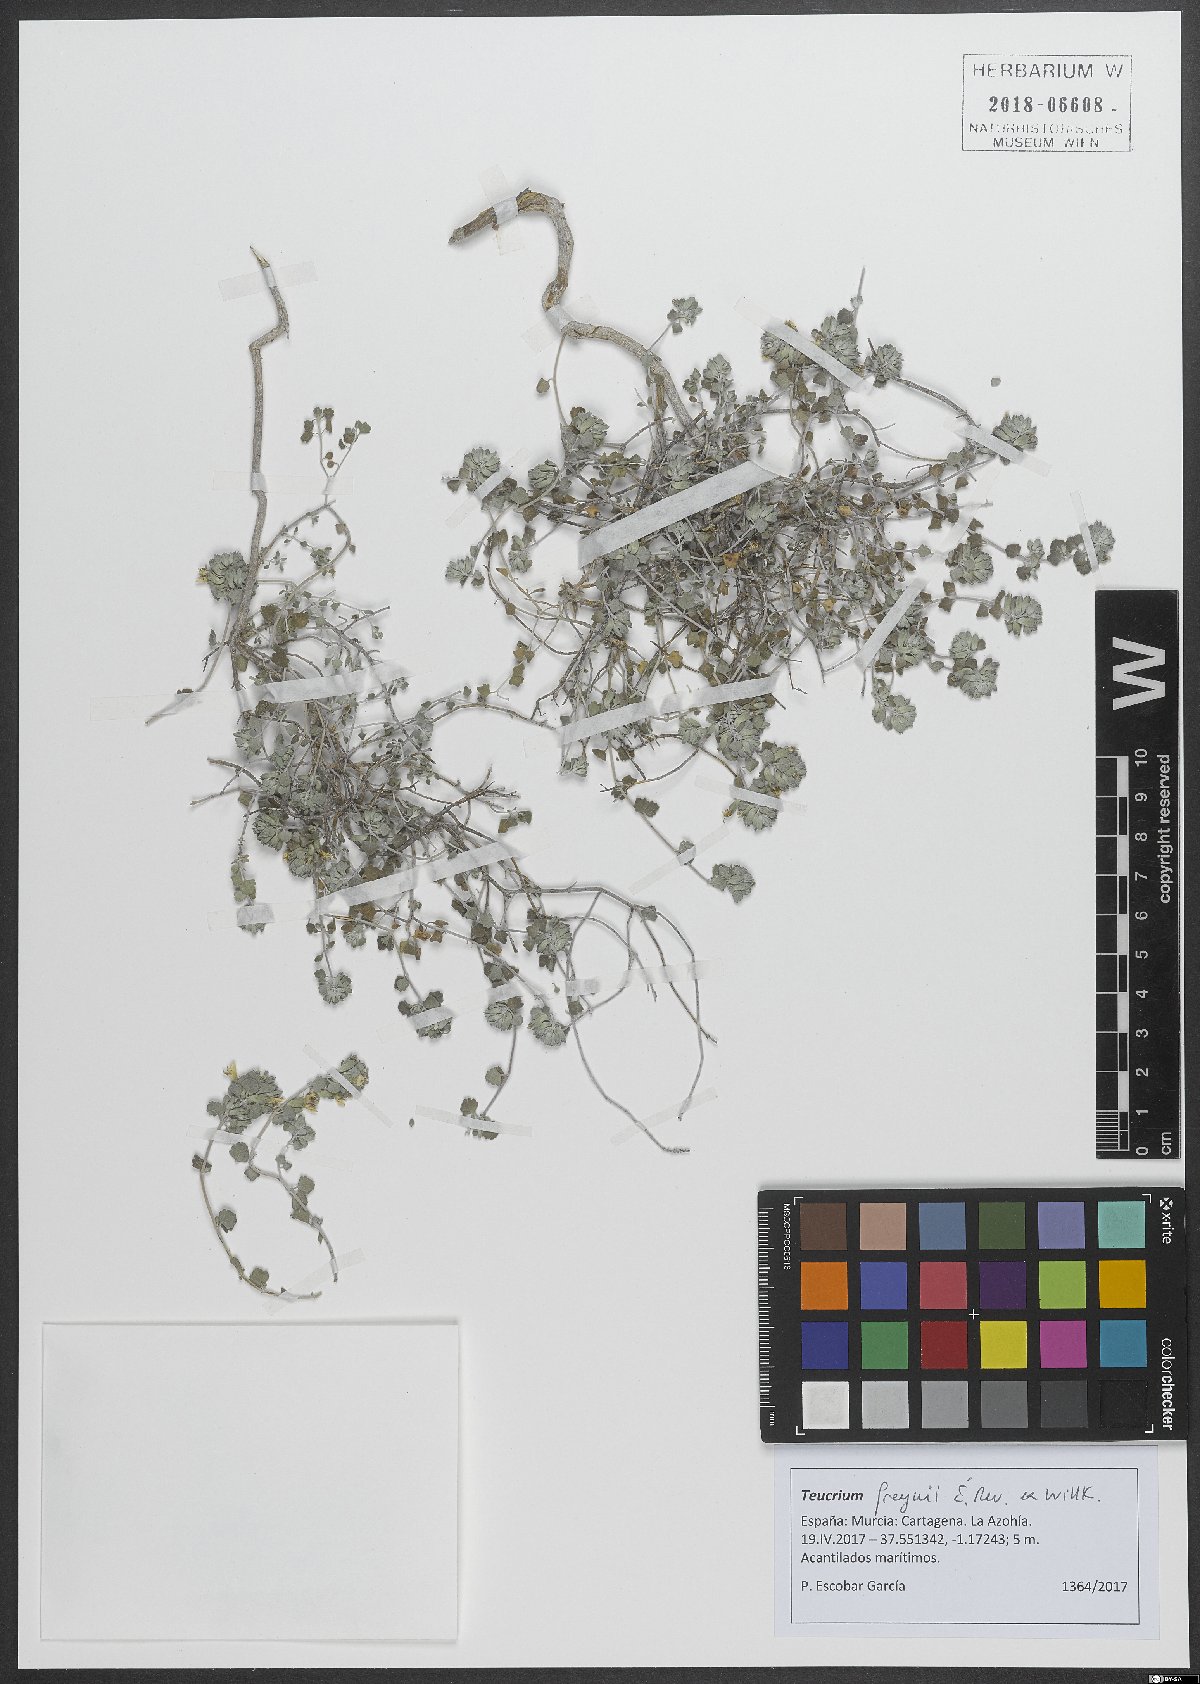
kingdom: Plantae
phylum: Tracheophyta
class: Magnoliopsida
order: Lamiales
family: Lamiaceae
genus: Teucrium
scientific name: Teucrium freynii
